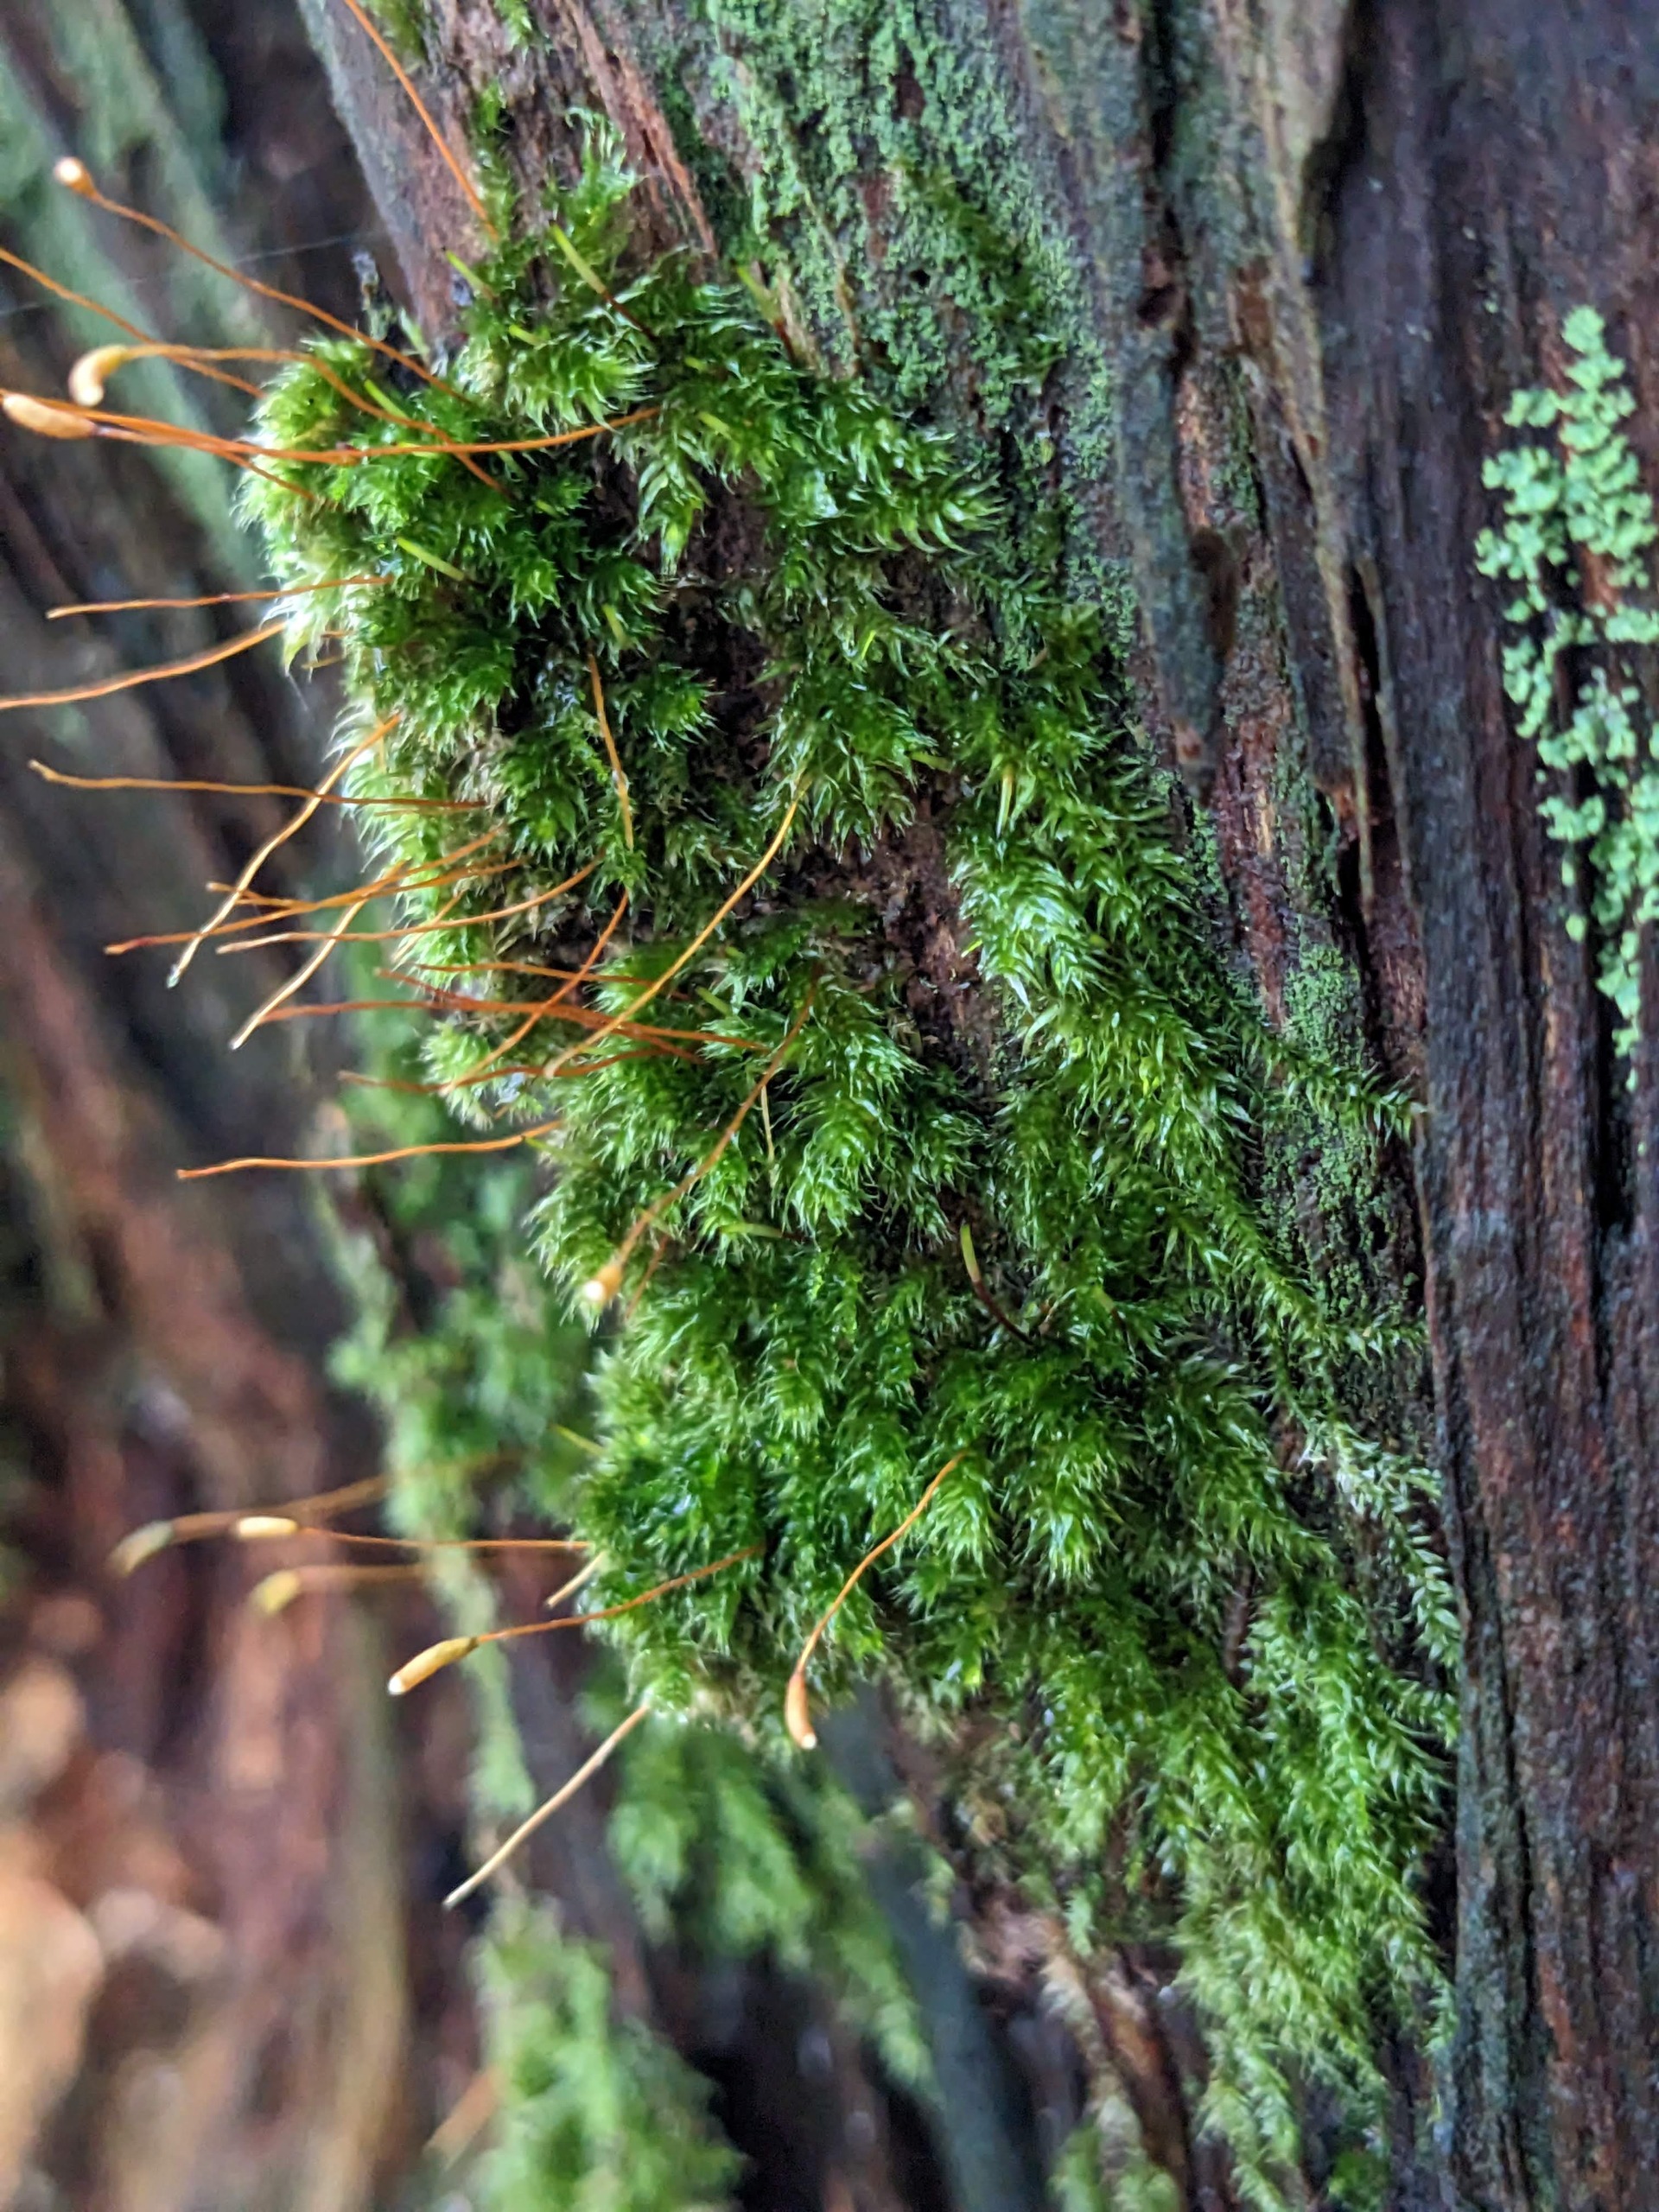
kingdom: Plantae
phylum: Bryophyta
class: Bryopsida
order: Hypnales
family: Plagiotheciaceae
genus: Herzogiella
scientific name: Herzogiella seligeri
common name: Stub-pølsekapsel
